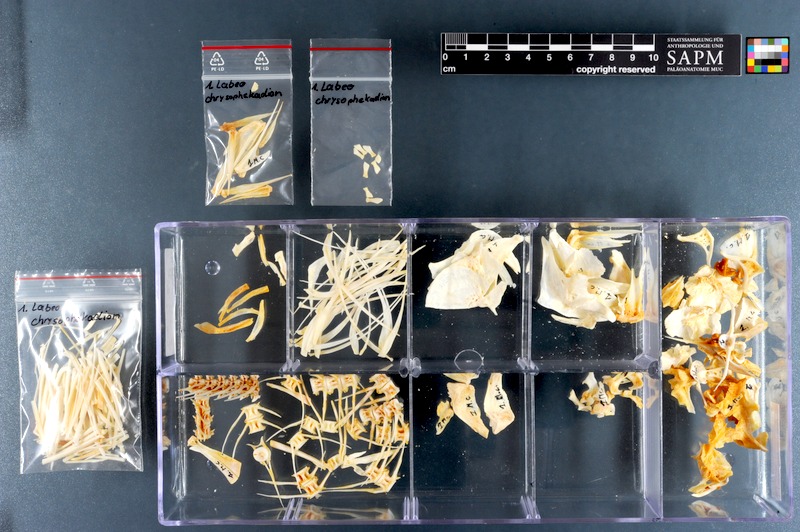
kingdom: Animalia
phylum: Chordata
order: Cypriniformes
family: Cyprinidae
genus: Labeo
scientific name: Labeo chrysophekadion
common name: Black sharkminnow
